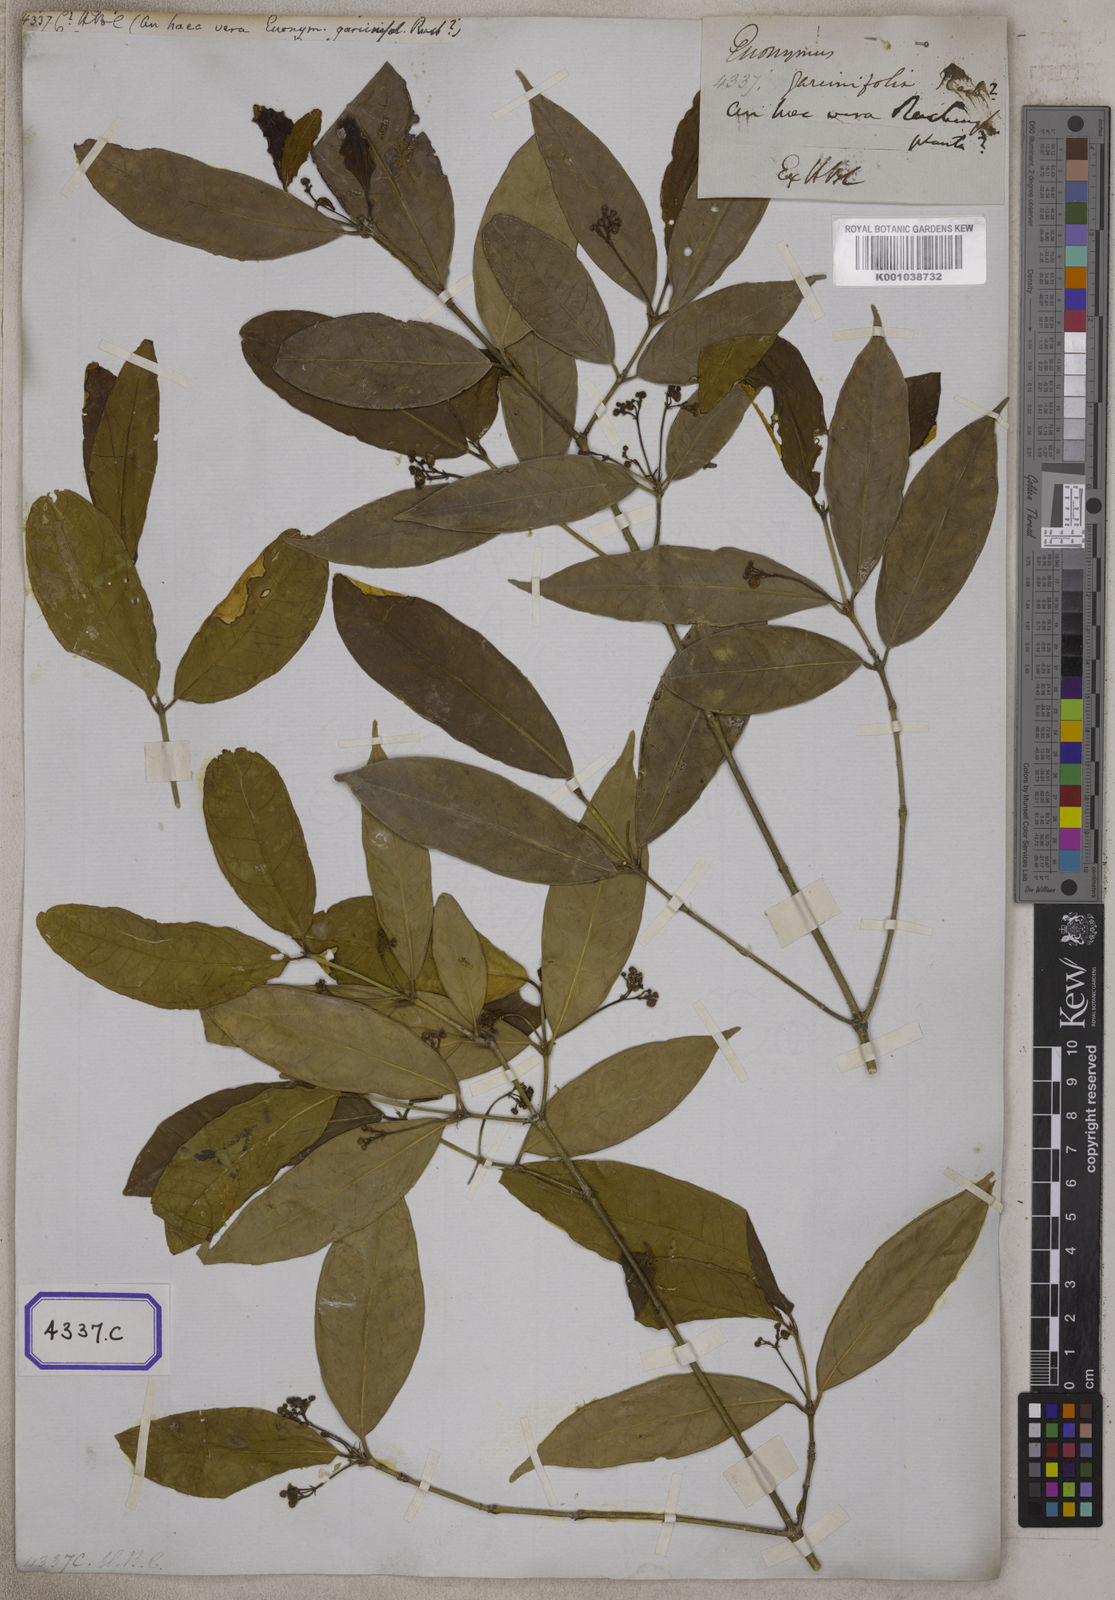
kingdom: Plantae
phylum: Tracheophyta
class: Magnoliopsida
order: Celastrales
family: Celastraceae
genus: Microtropis
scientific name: Microtropis
